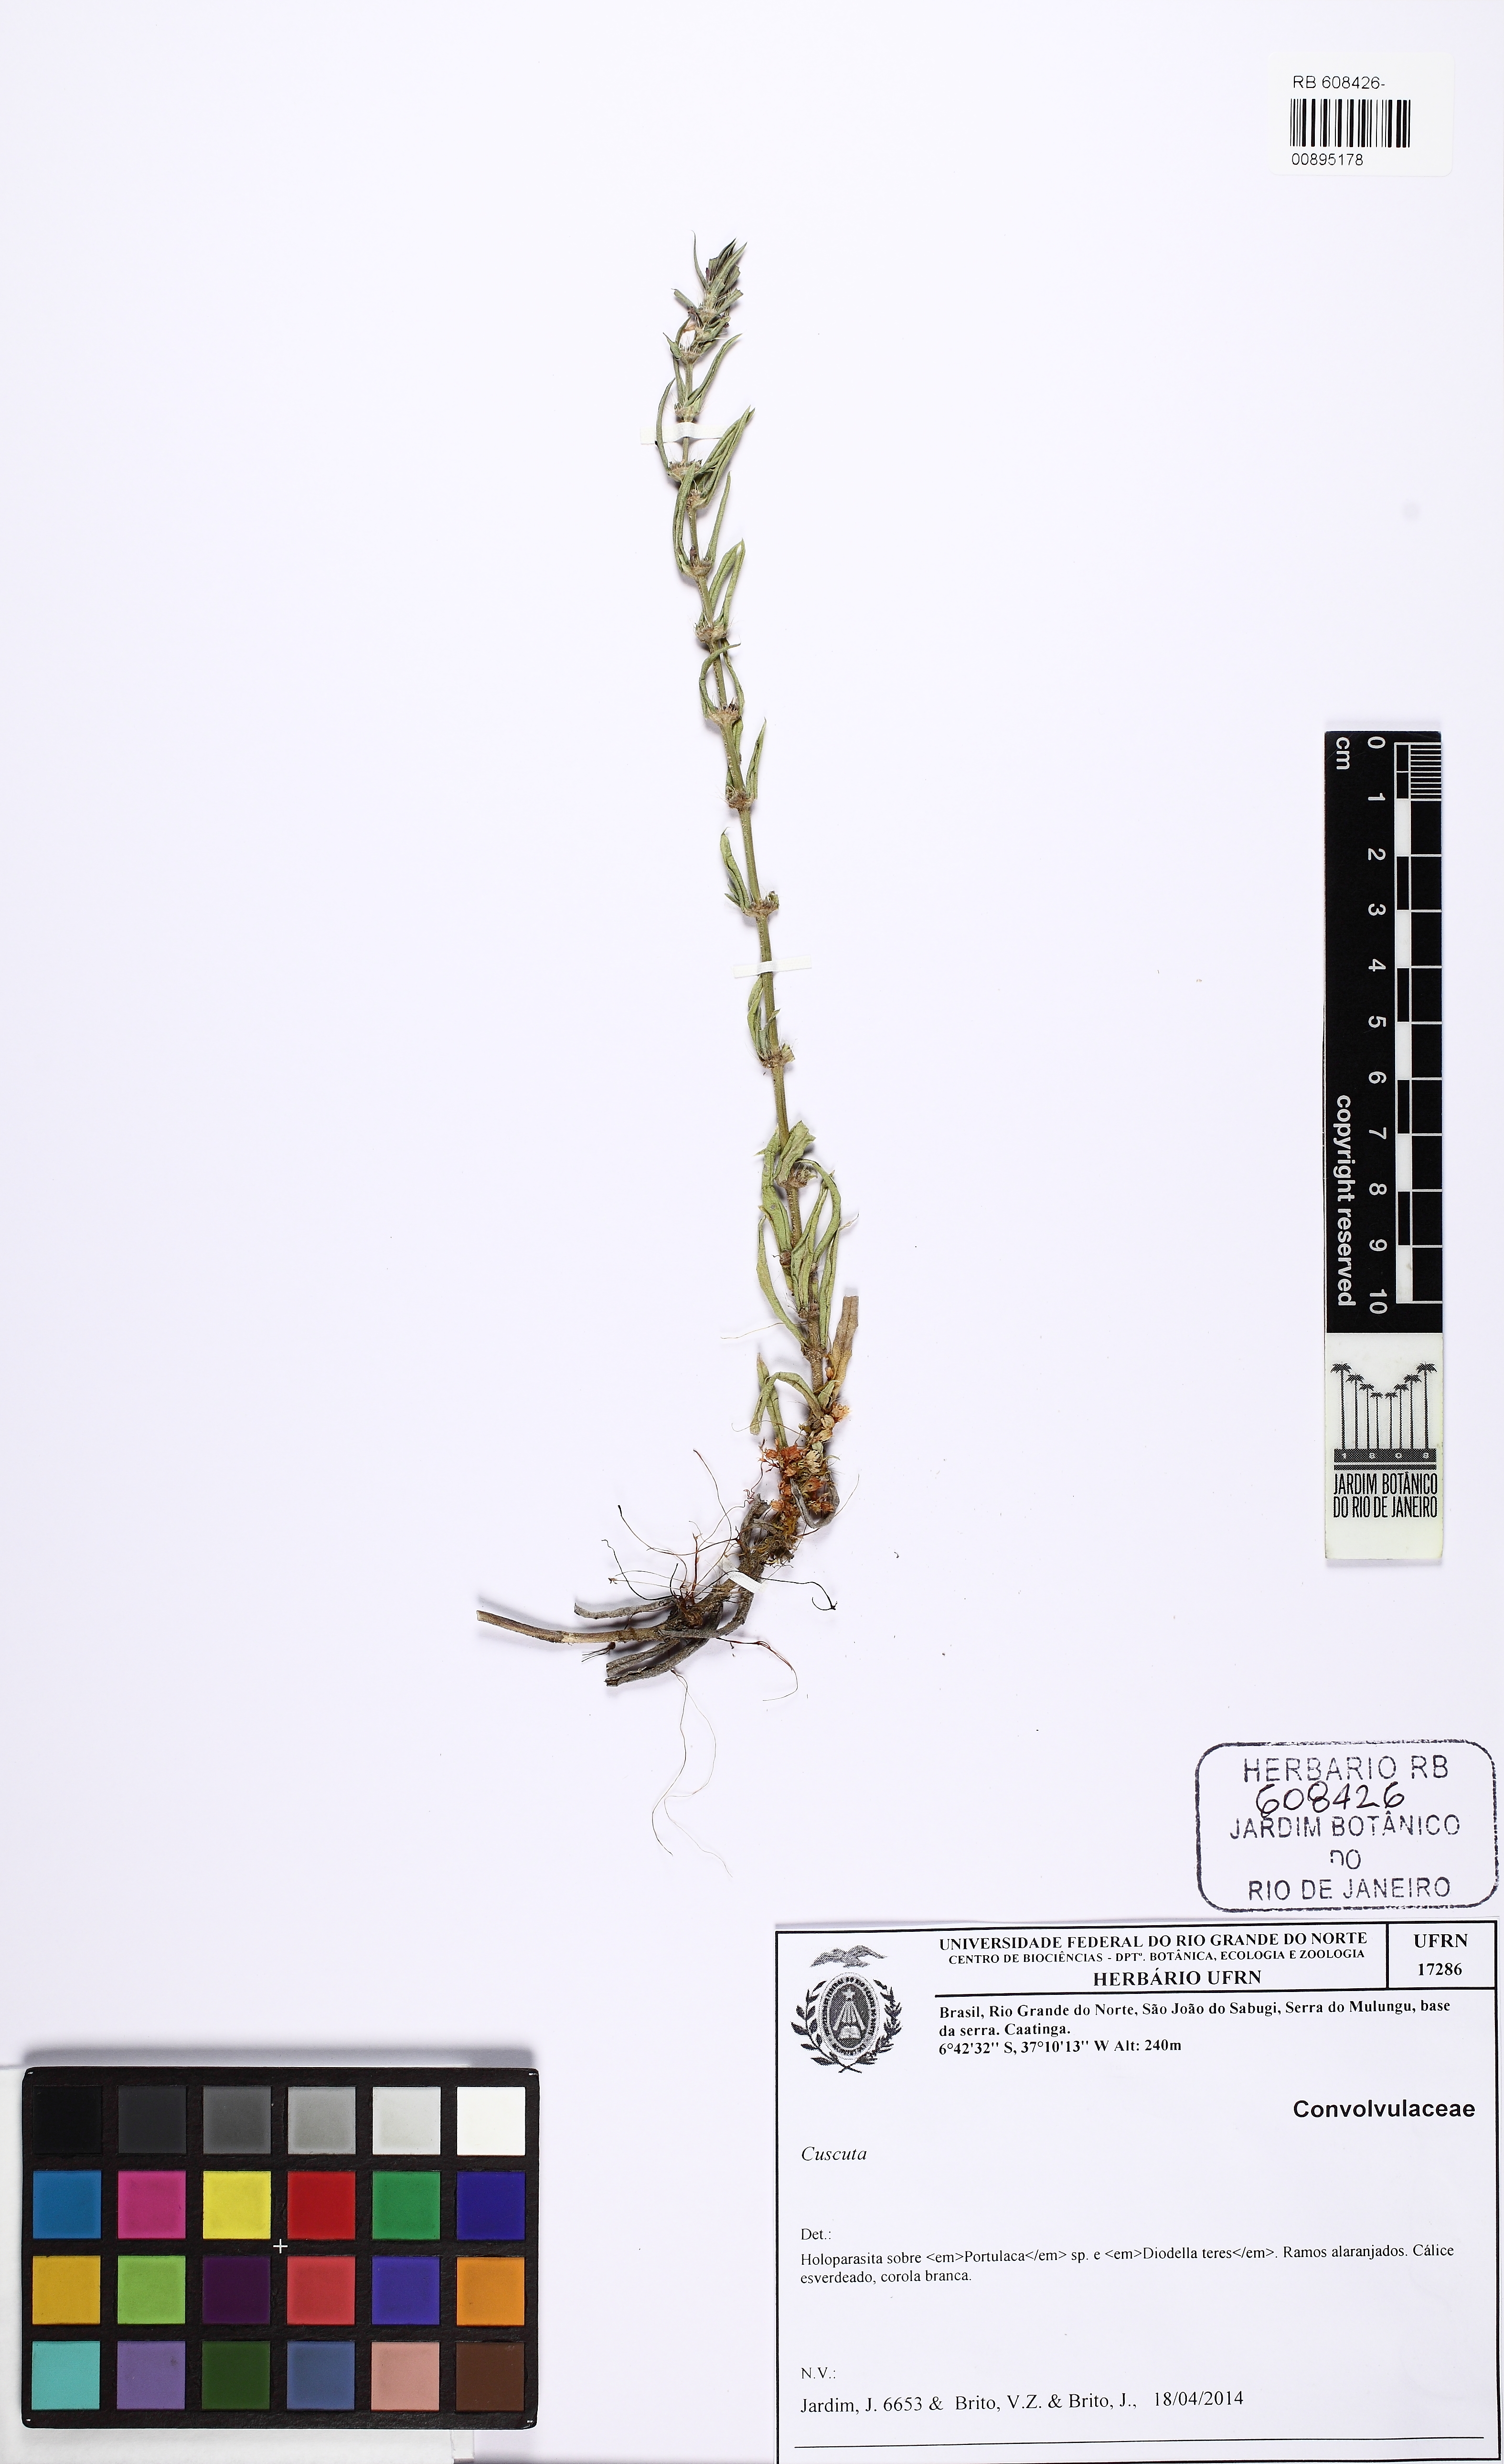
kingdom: Plantae
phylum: Tracheophyta
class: Magnoliopsida
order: Solanales
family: Convolvulaceae
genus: Cuscuta
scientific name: Cuscuta
